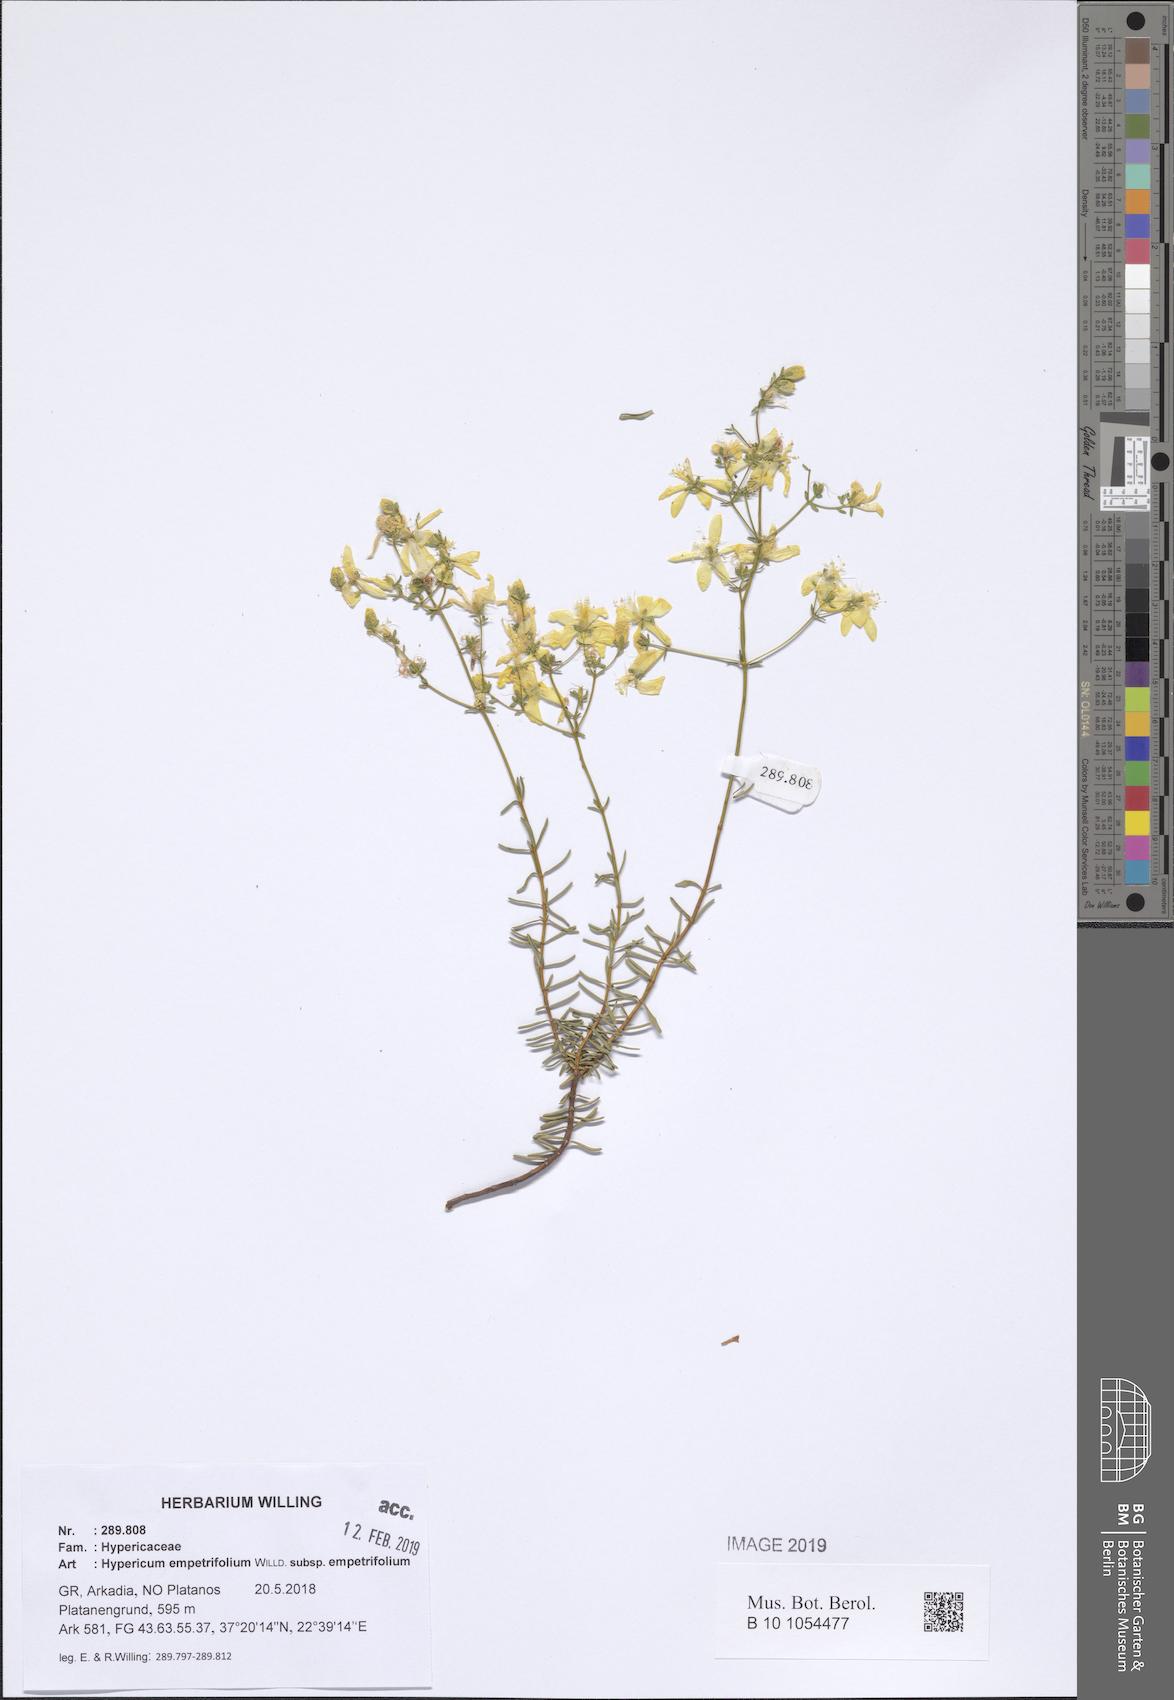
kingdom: Plantae
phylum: Tracheophyta
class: Magnoliopsida
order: Malpighiales
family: Hypericaceae
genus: Hypericum
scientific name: Hypericum empetrifolium
